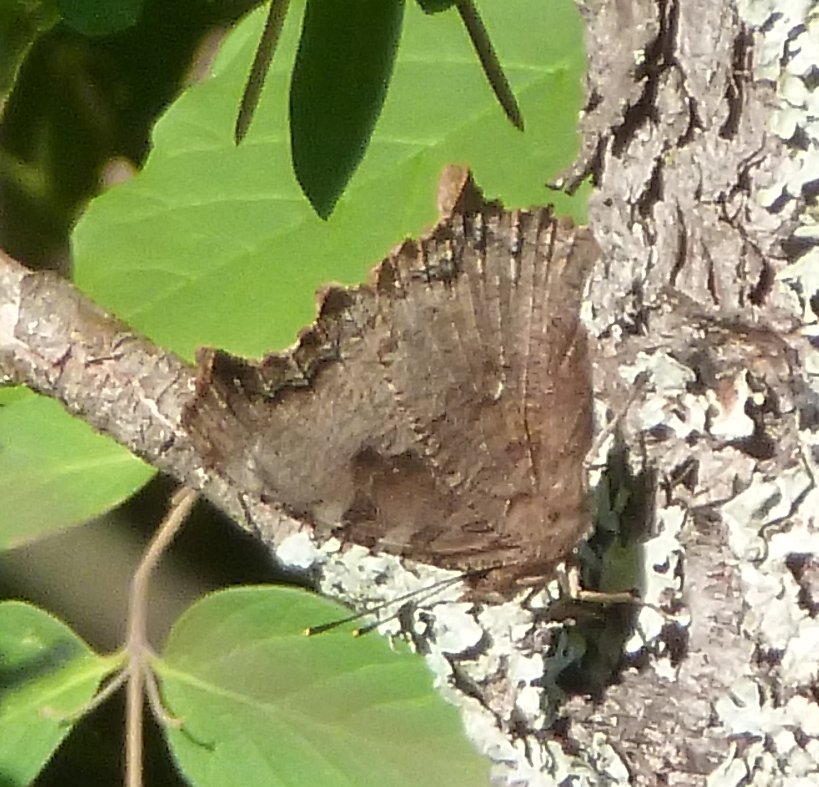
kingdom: Animalia
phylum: Arthropoda
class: Insecta
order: Lepidoptera
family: Nymphalidae
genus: Polygonia
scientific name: Polygonia vaualbum
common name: Compton Tortoiseshell
